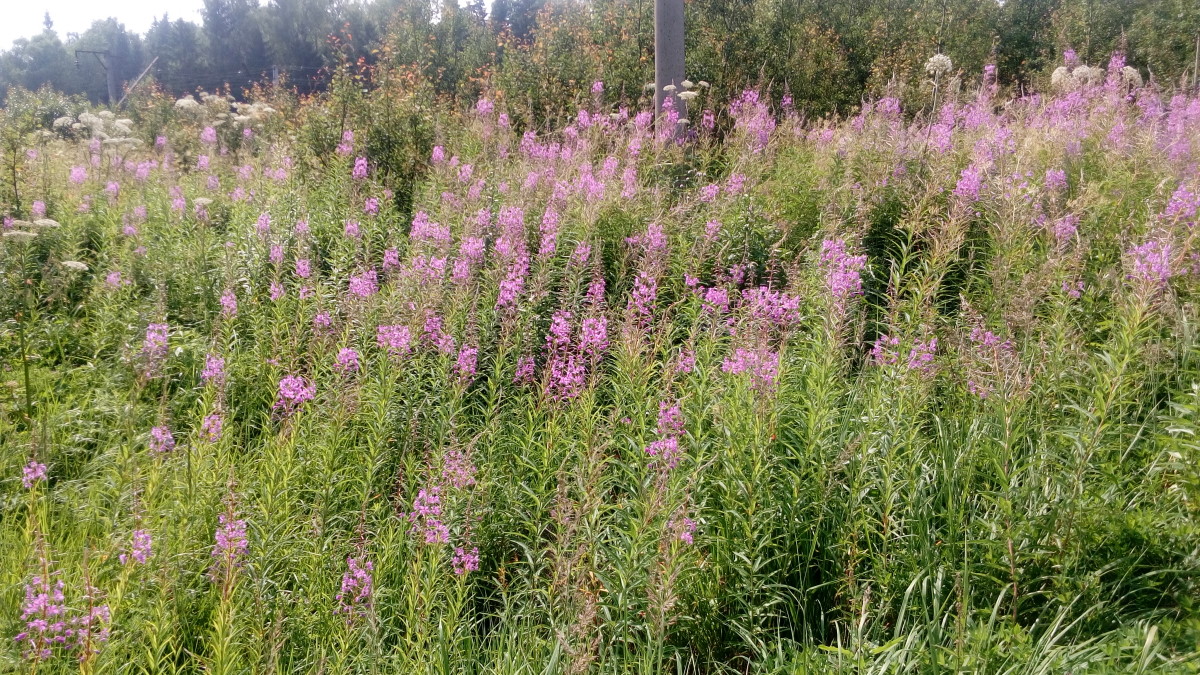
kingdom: Plantae
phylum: Tracheophyta
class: Magnoliopsida
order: Myrtales
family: Onagraceae
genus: Chamaenerion
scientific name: Chamaenerion angustifolium
